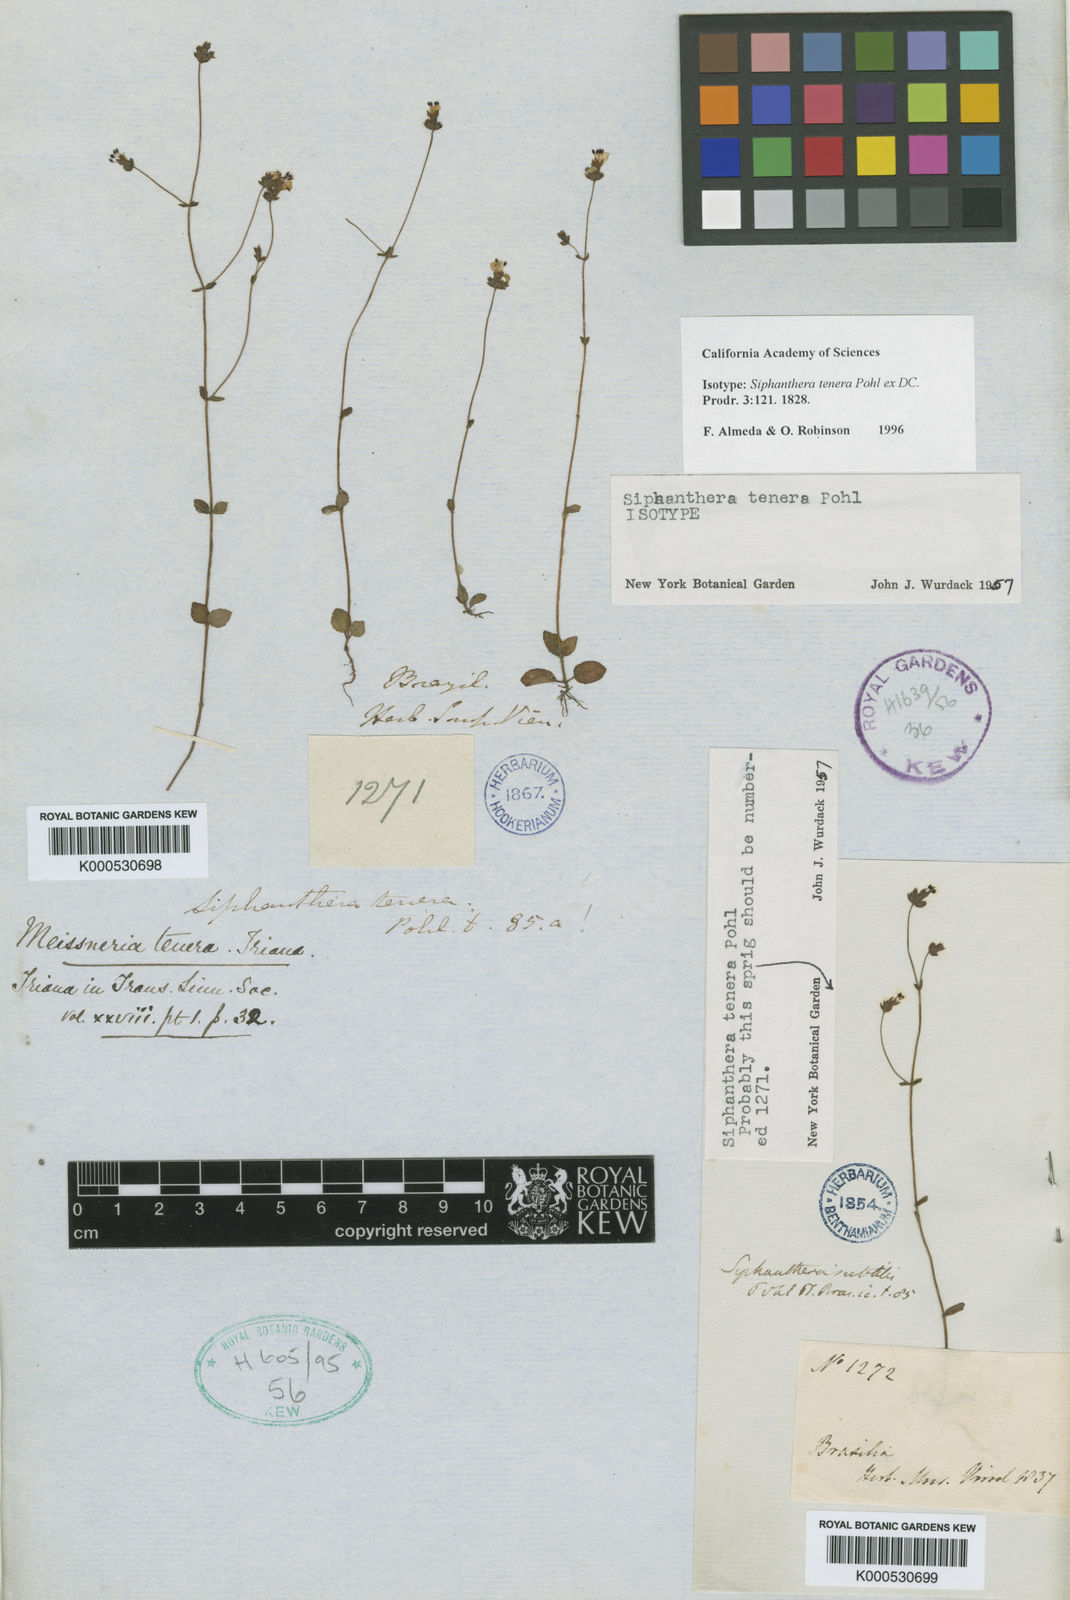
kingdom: Plantae
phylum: Tracheophyta
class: Magnoliopsida
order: Myrtales
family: Melastomataceae
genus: Siphanthera
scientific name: Siphanthera
